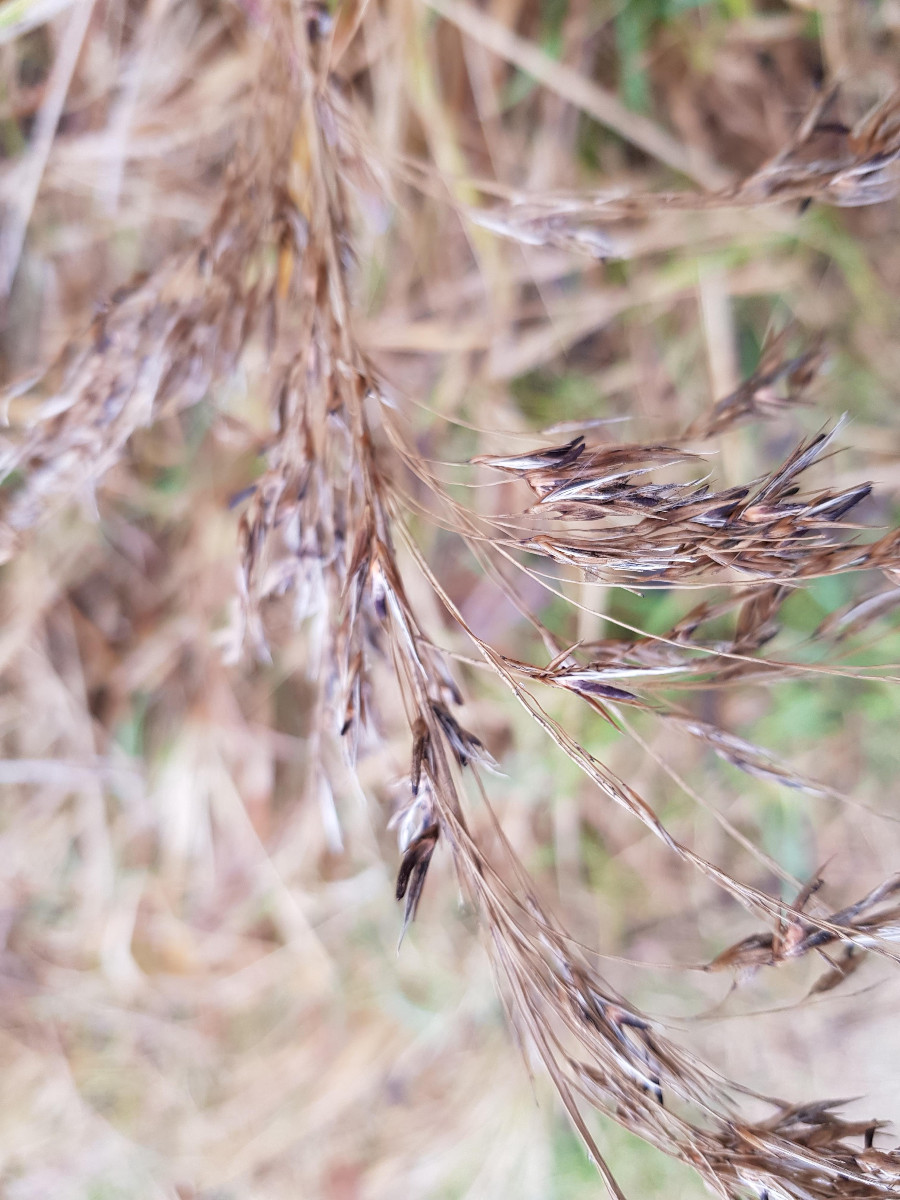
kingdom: Fungi
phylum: Ascomycota
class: Sordariomycetes
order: Hypocreales
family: Clavicipitaceae
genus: Claviceps
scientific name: Claviceps arundinis
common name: tagrør-meldrøjer
